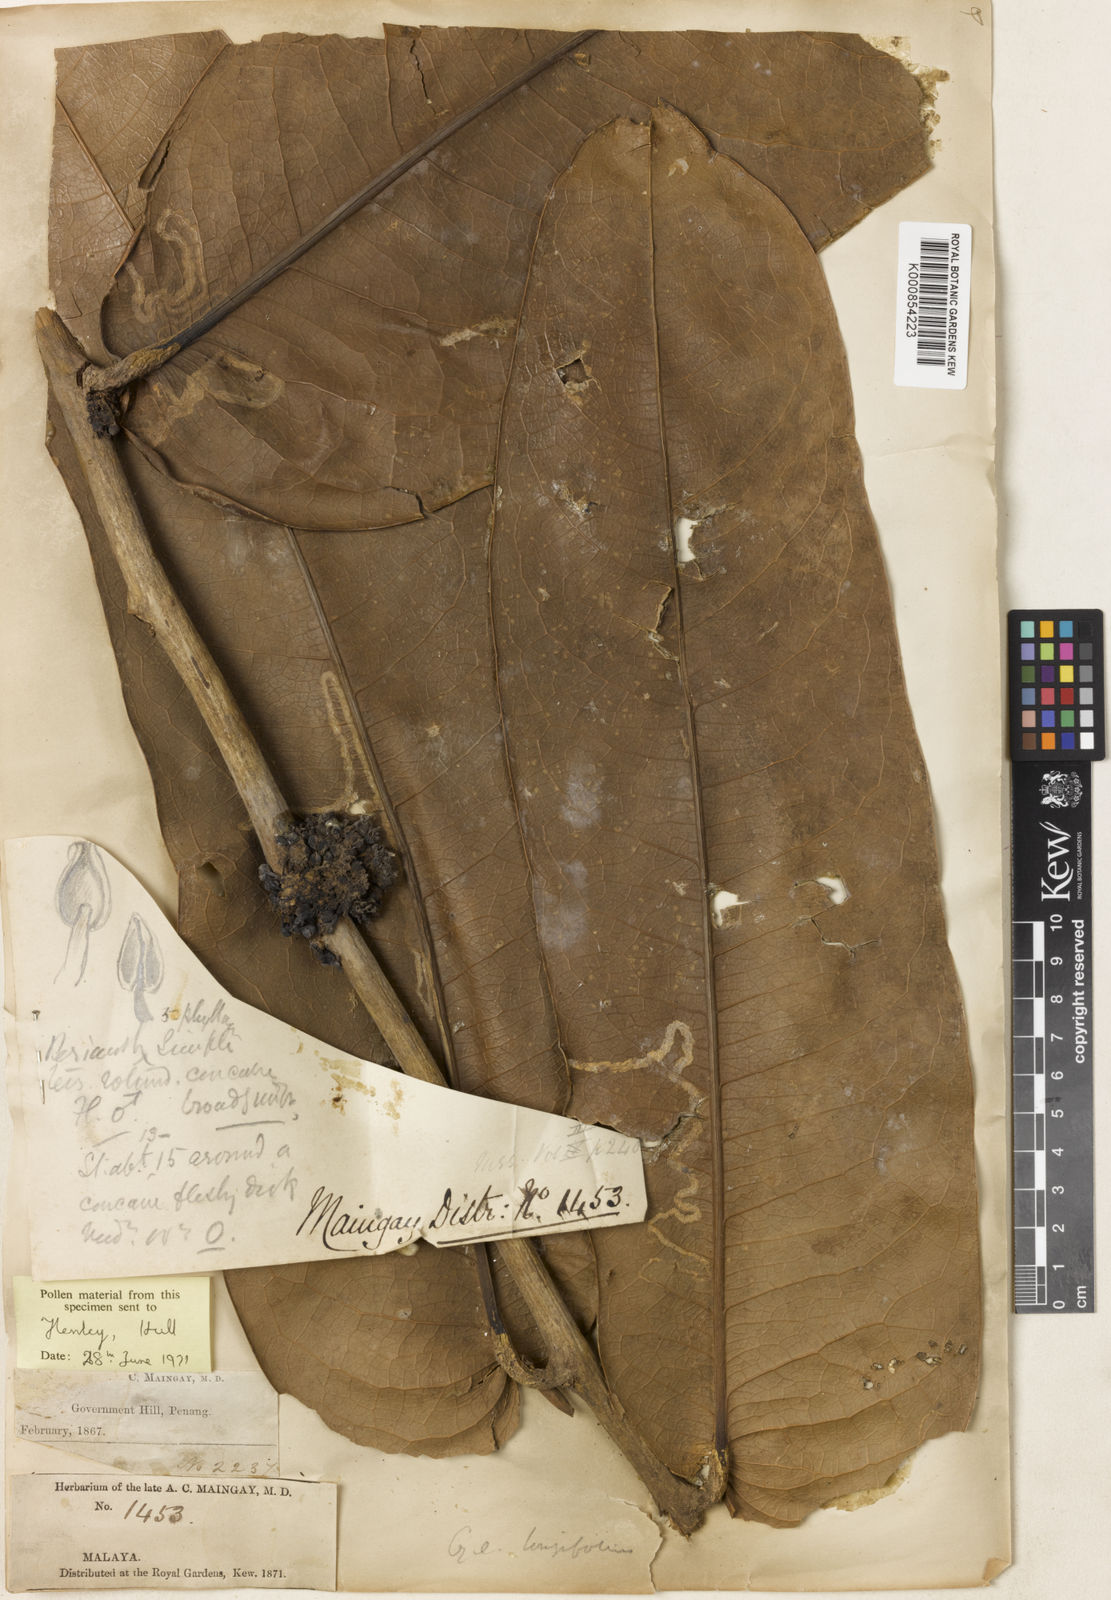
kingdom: Plantae
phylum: Tracheophyta
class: Magnoliopsida
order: Malpighiales
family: Putranjivaceae
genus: Drypetes
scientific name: Drypetes pendula
